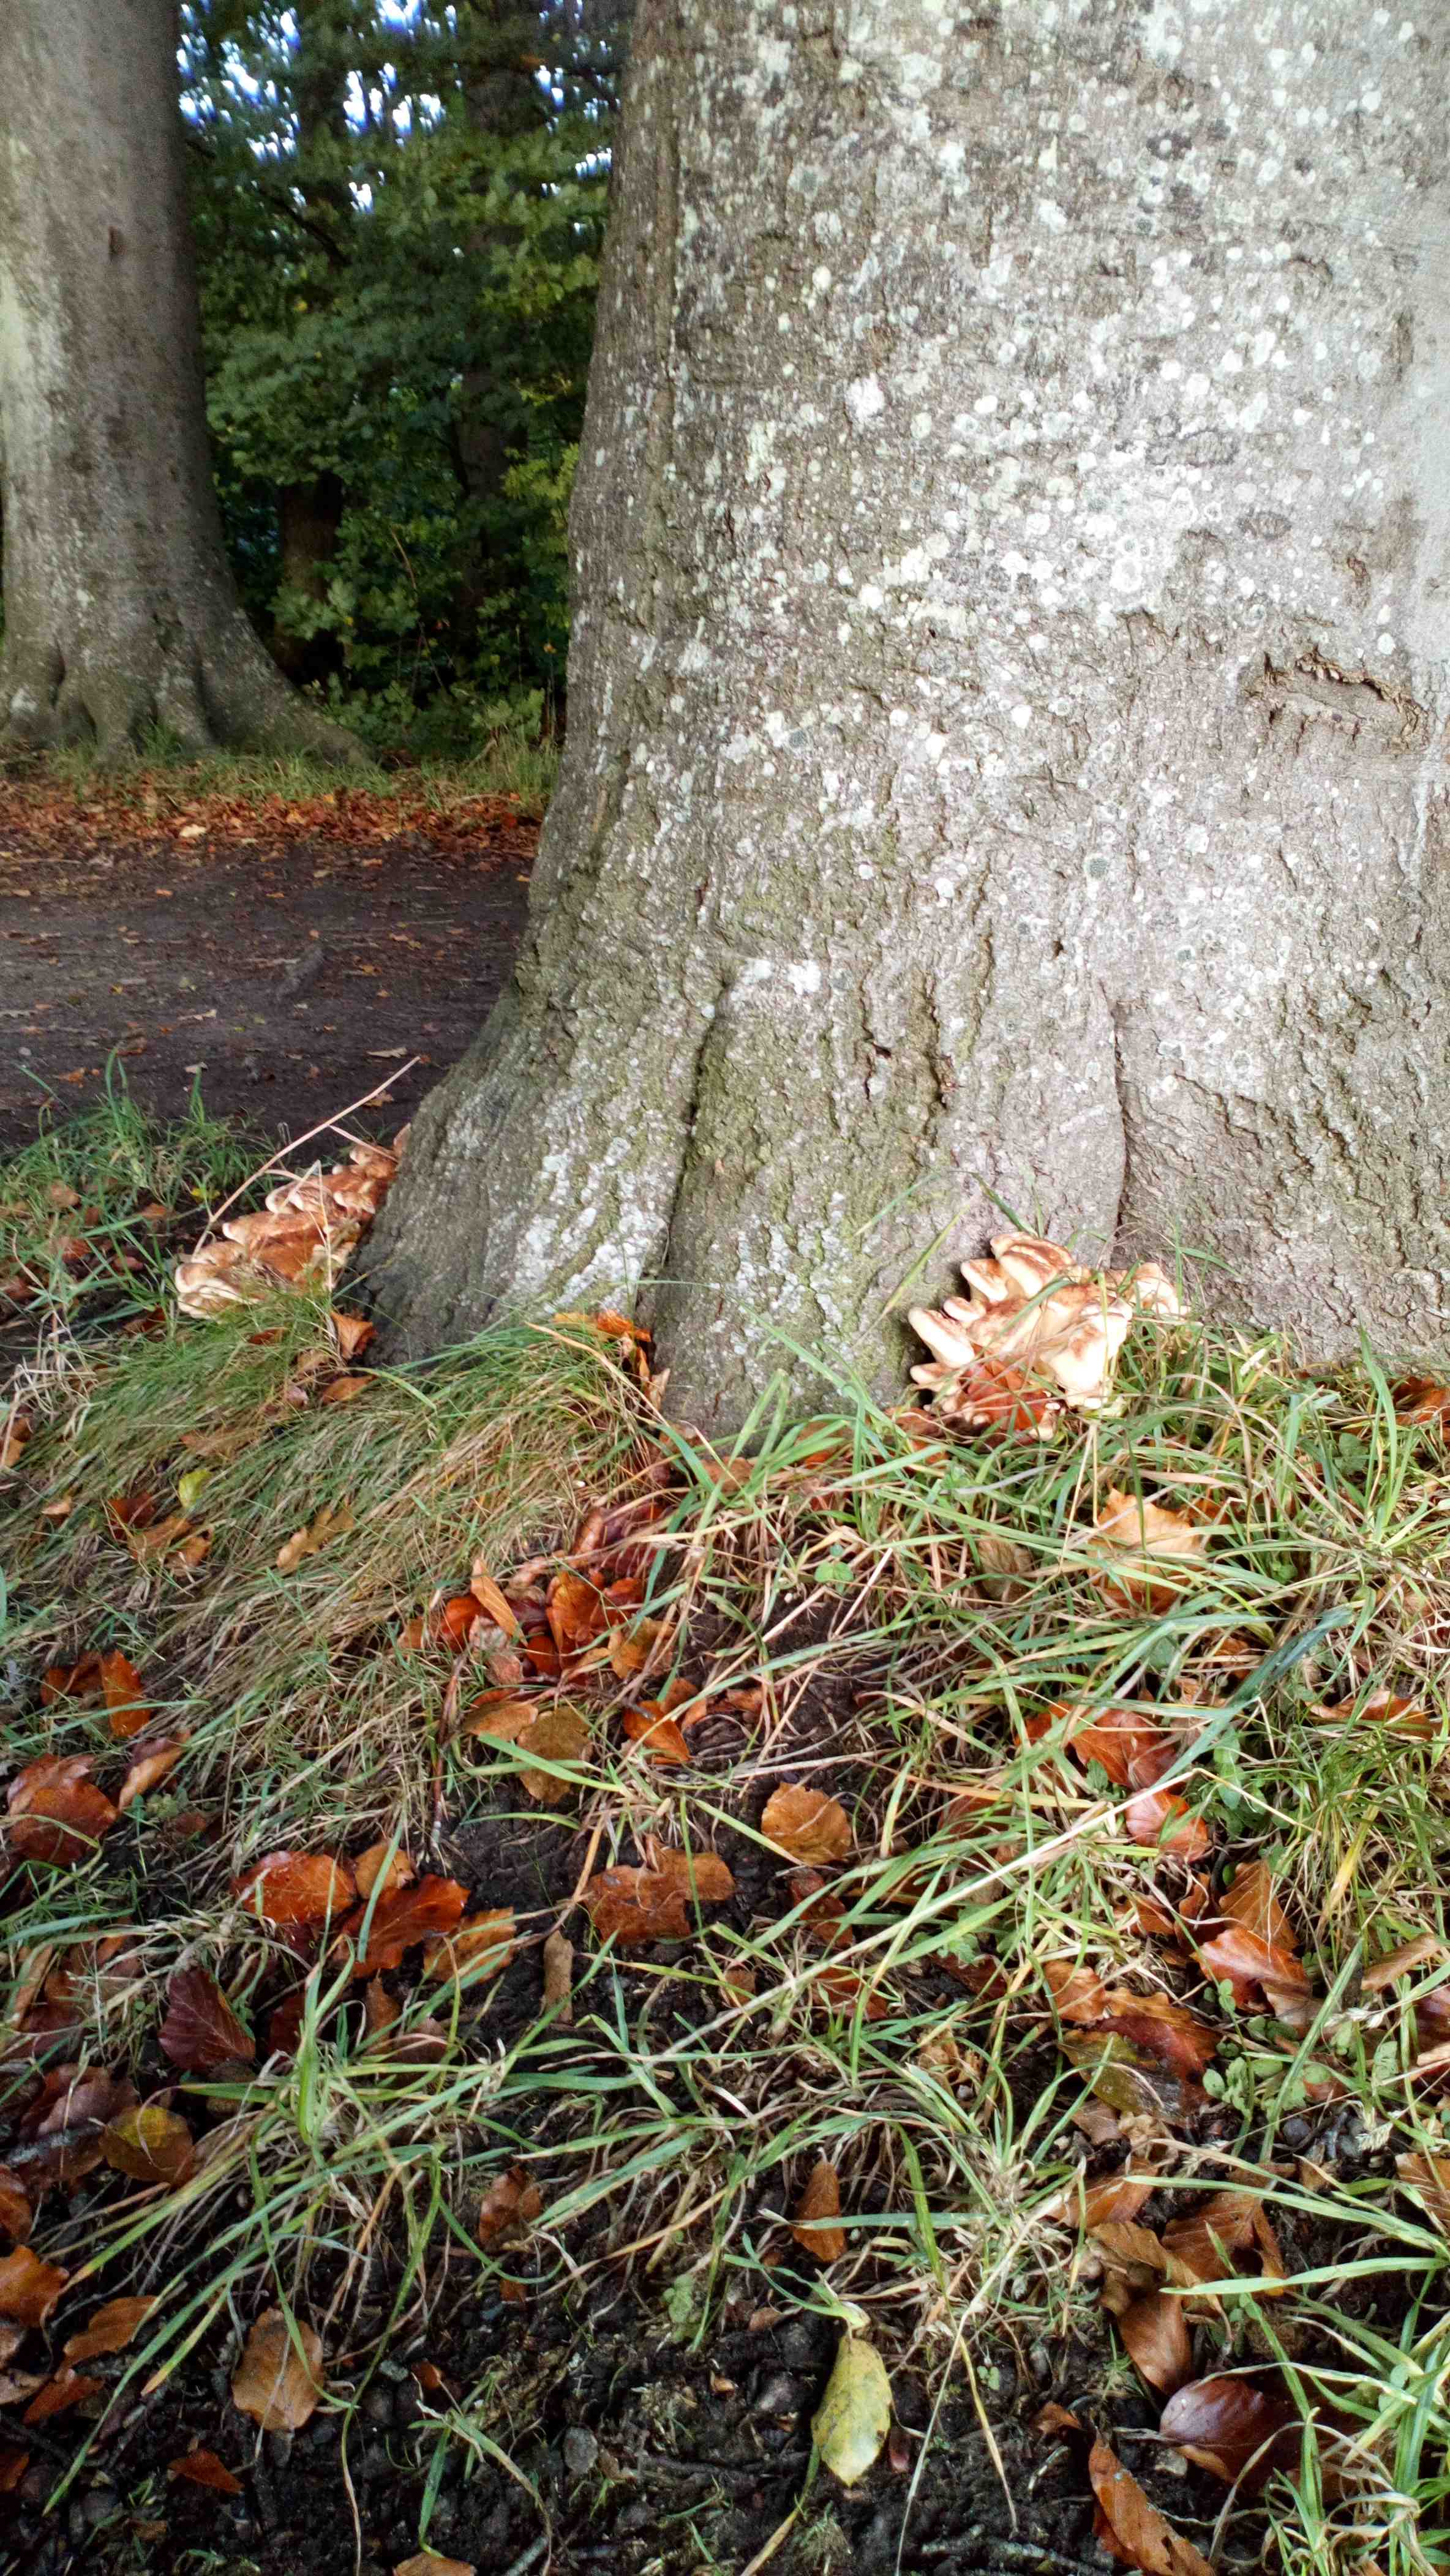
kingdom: Fungi
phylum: Basidiomycota
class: Agaricomycetes
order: Polyporales
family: Meripilaceae
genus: Meripilus
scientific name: Meripilus giganteus
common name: kæmpeporesvamp
